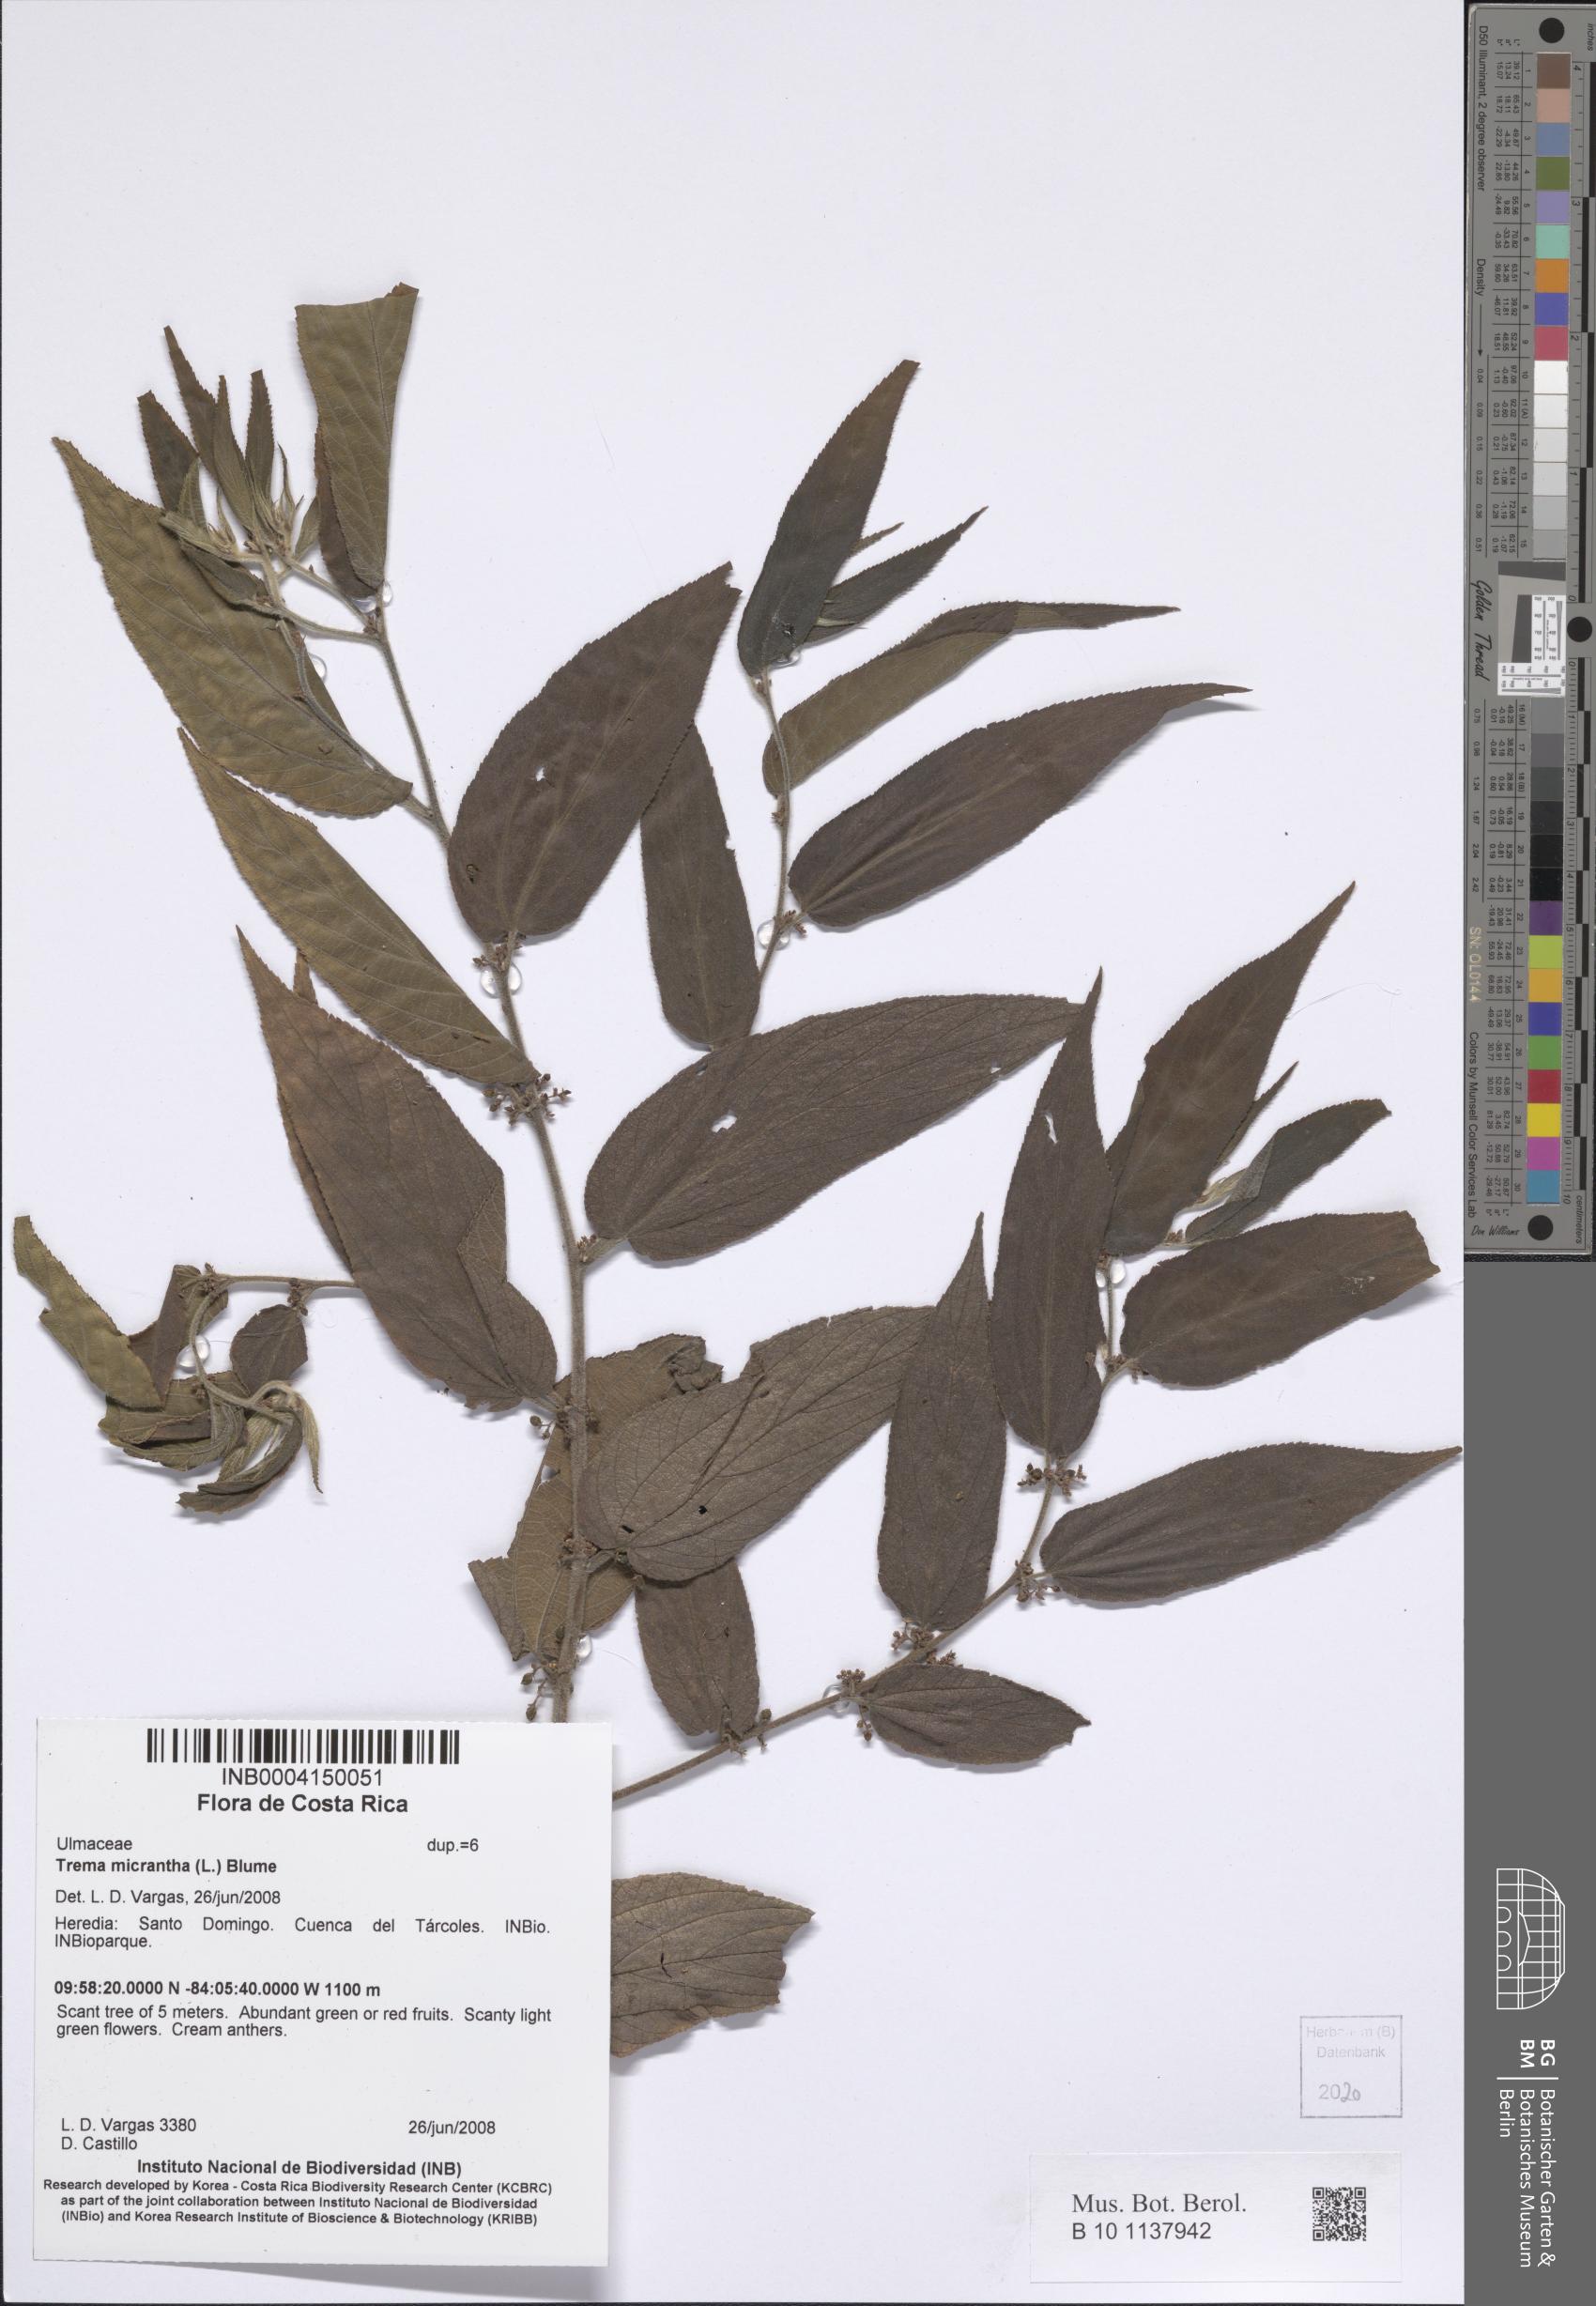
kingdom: Plantae
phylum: Tracheophyta
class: Magnoliopsida
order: Rosales
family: Cannabaceae
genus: Trema
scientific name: Trema micranthum
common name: Jamaican nettletree
